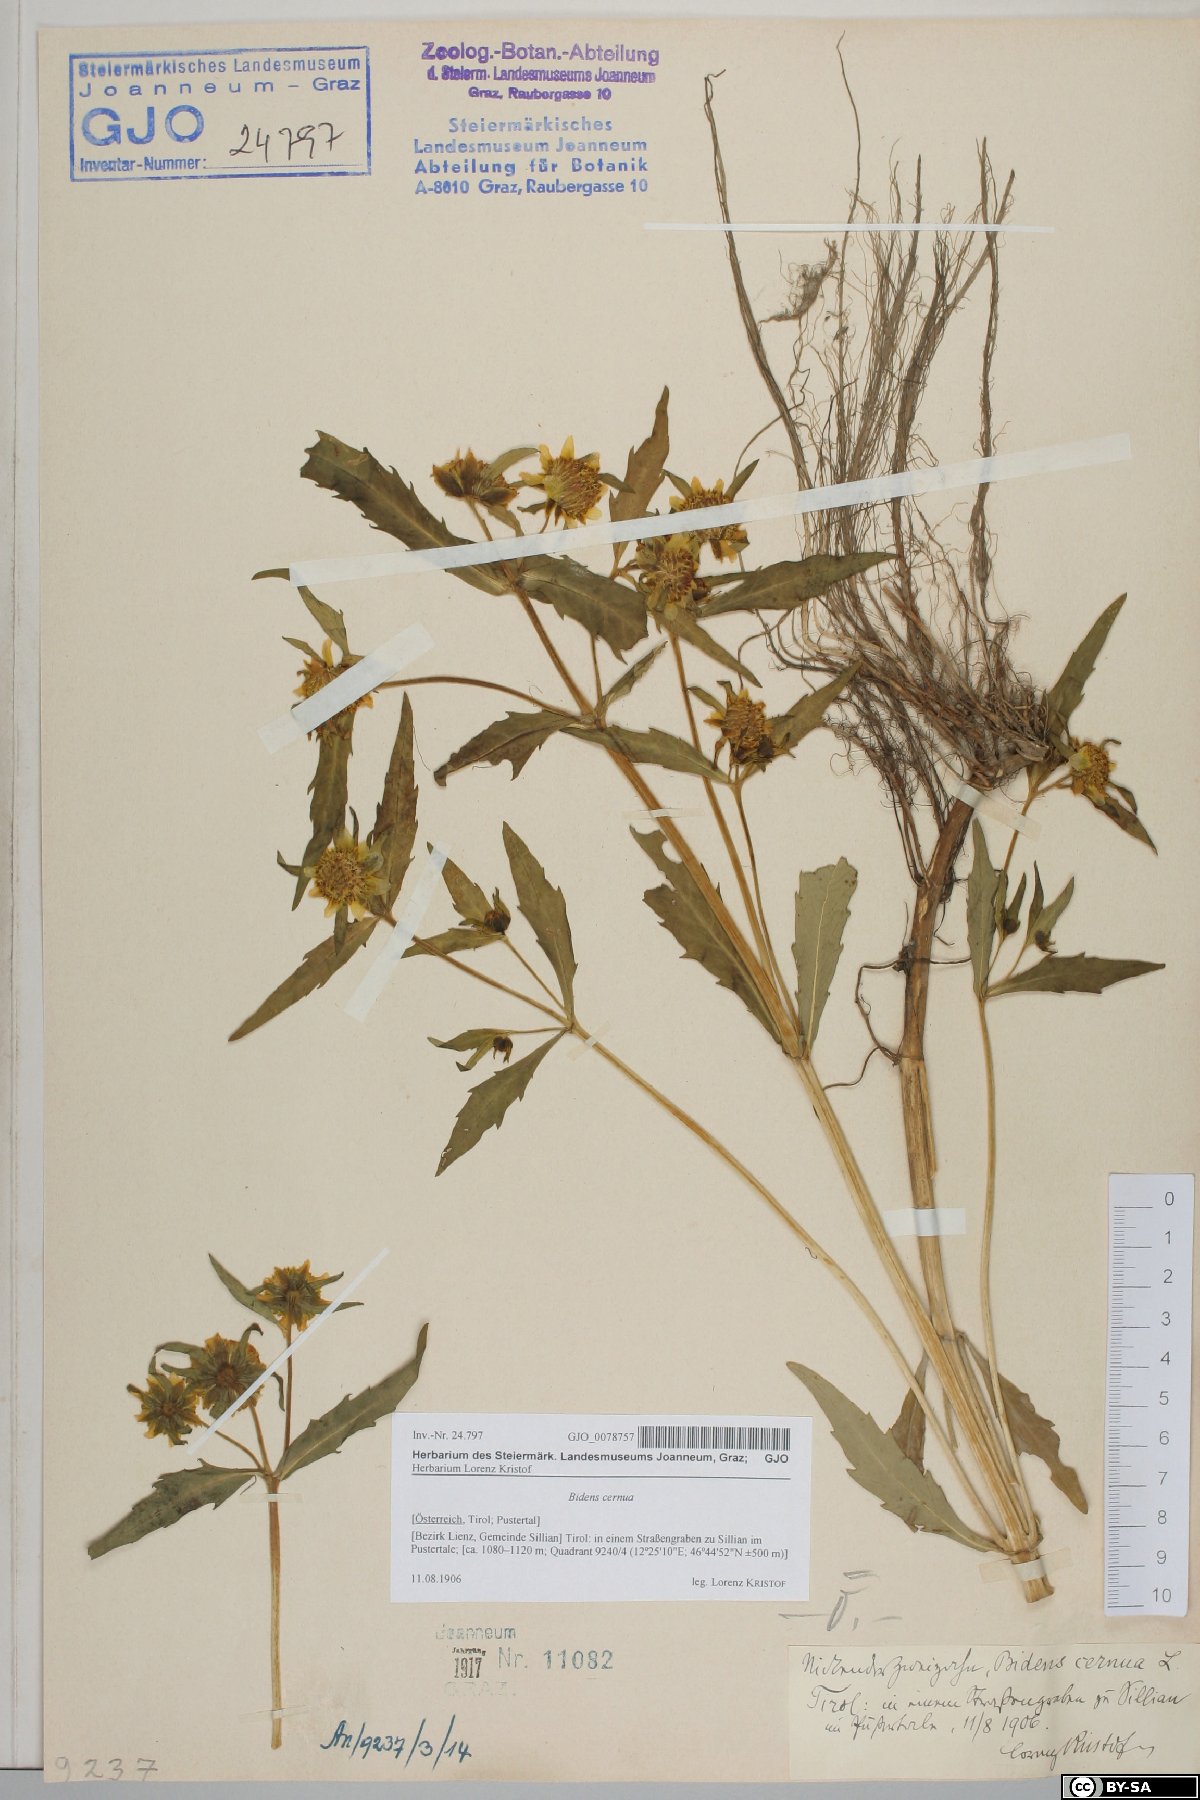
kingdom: Plantae
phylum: Tracheophyta
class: Magnoliopsida
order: Asterales
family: Asteraceae
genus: Bidens
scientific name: Bidens cernua
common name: Nodding bur-marigold
